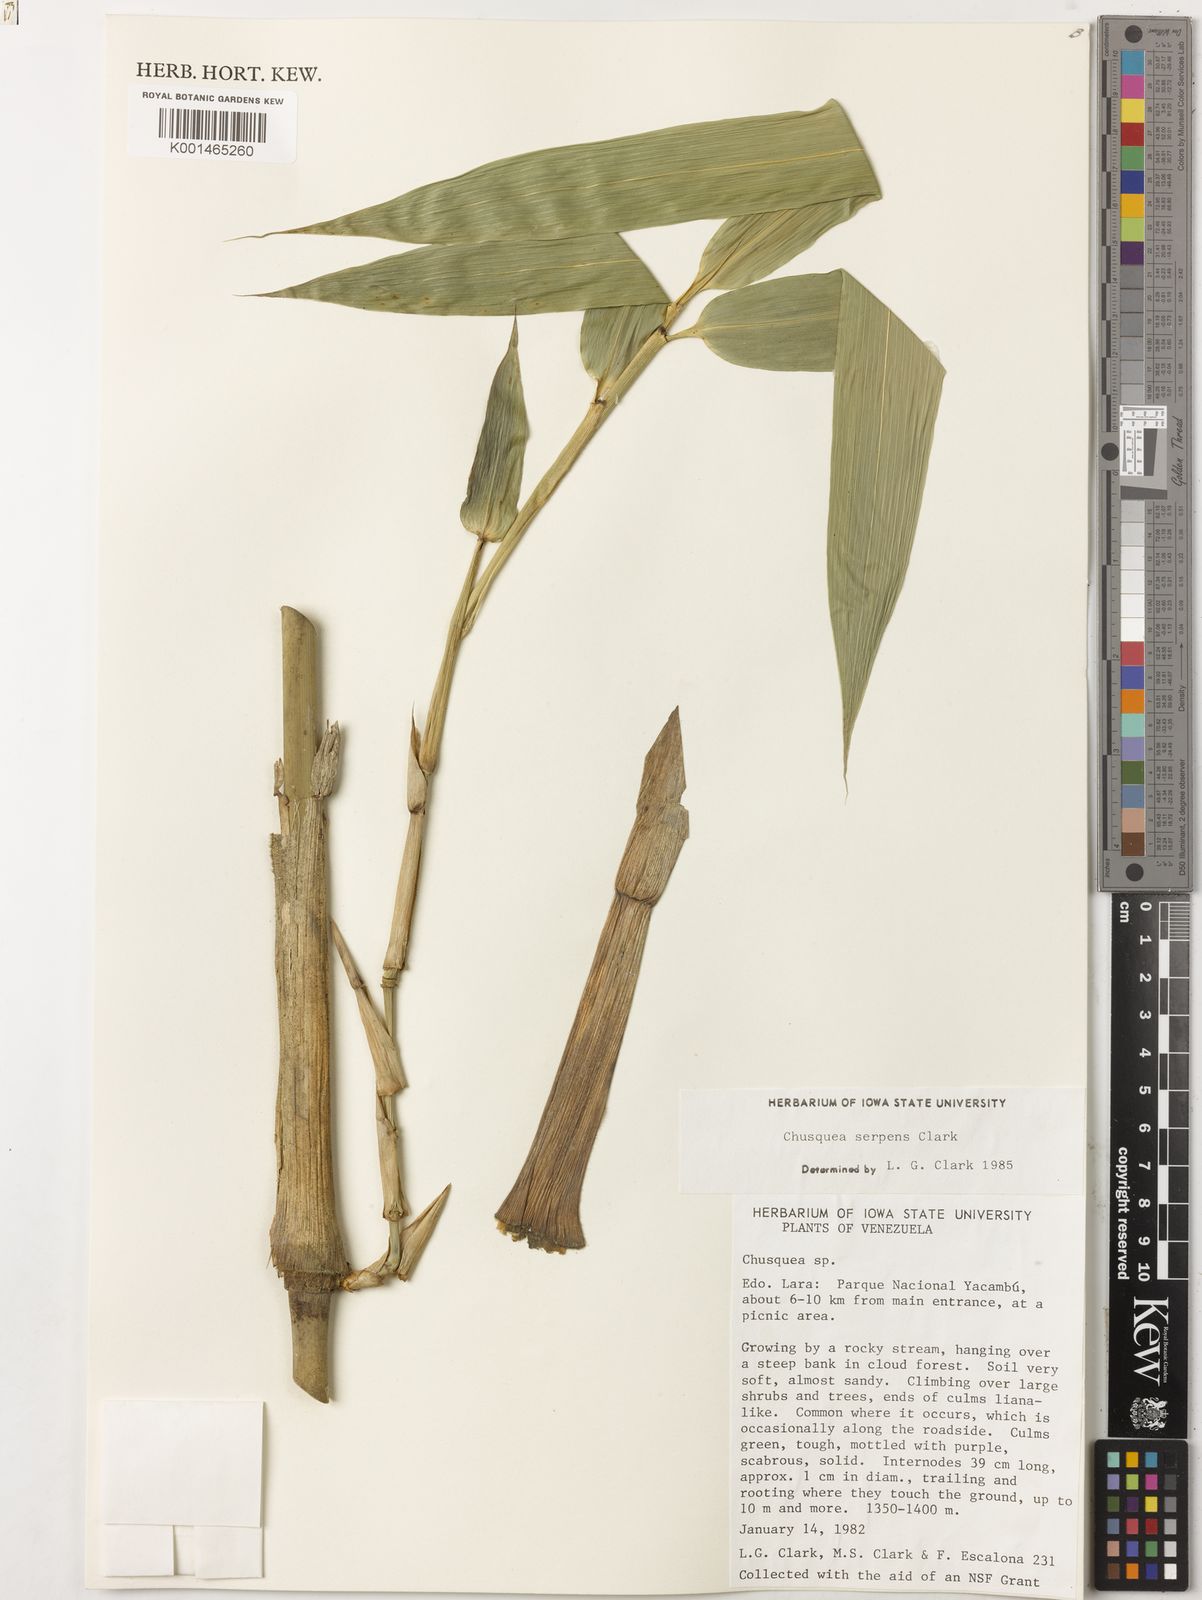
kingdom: Plantae
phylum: Tracheophyta
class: Liliopsida
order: Poales
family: Poaceae
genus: Chusquea
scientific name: Chusquea serpens
